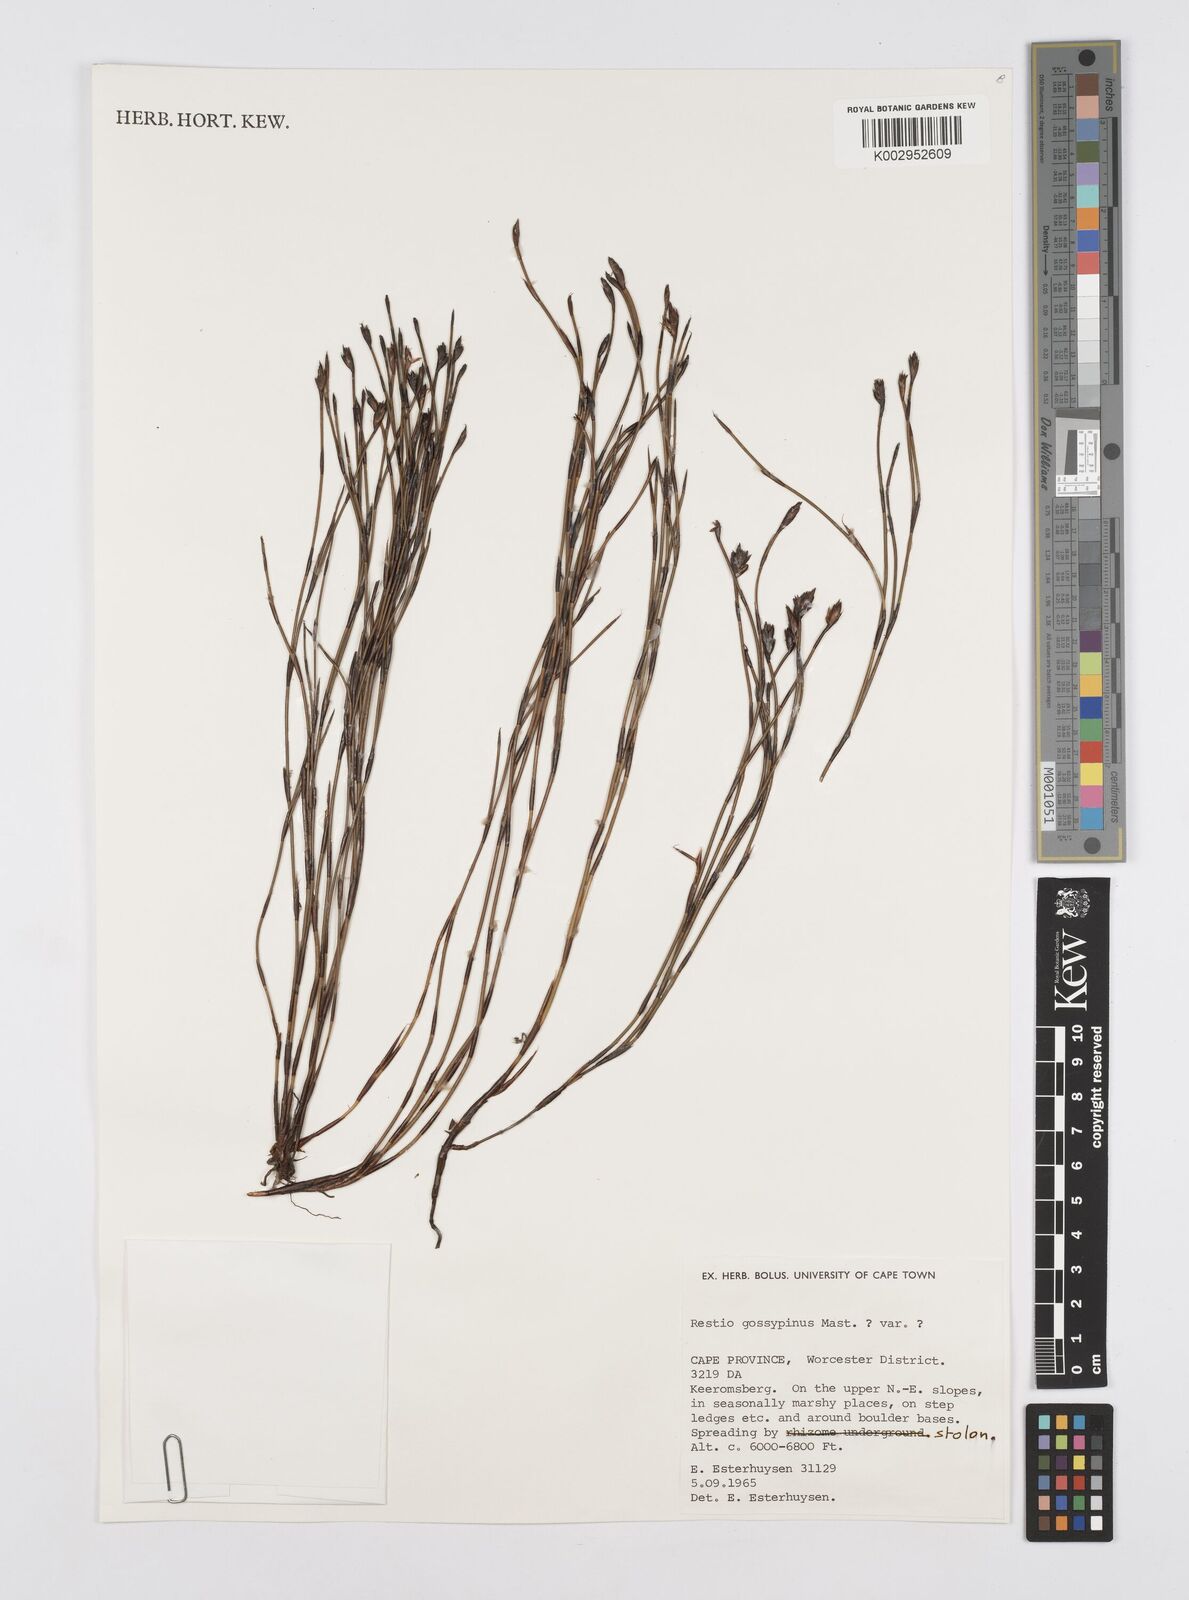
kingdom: Plantae
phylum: Tracheophyta
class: Liliopsida
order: Poales
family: Restionaceae
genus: Restio
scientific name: Restio gossypinus
